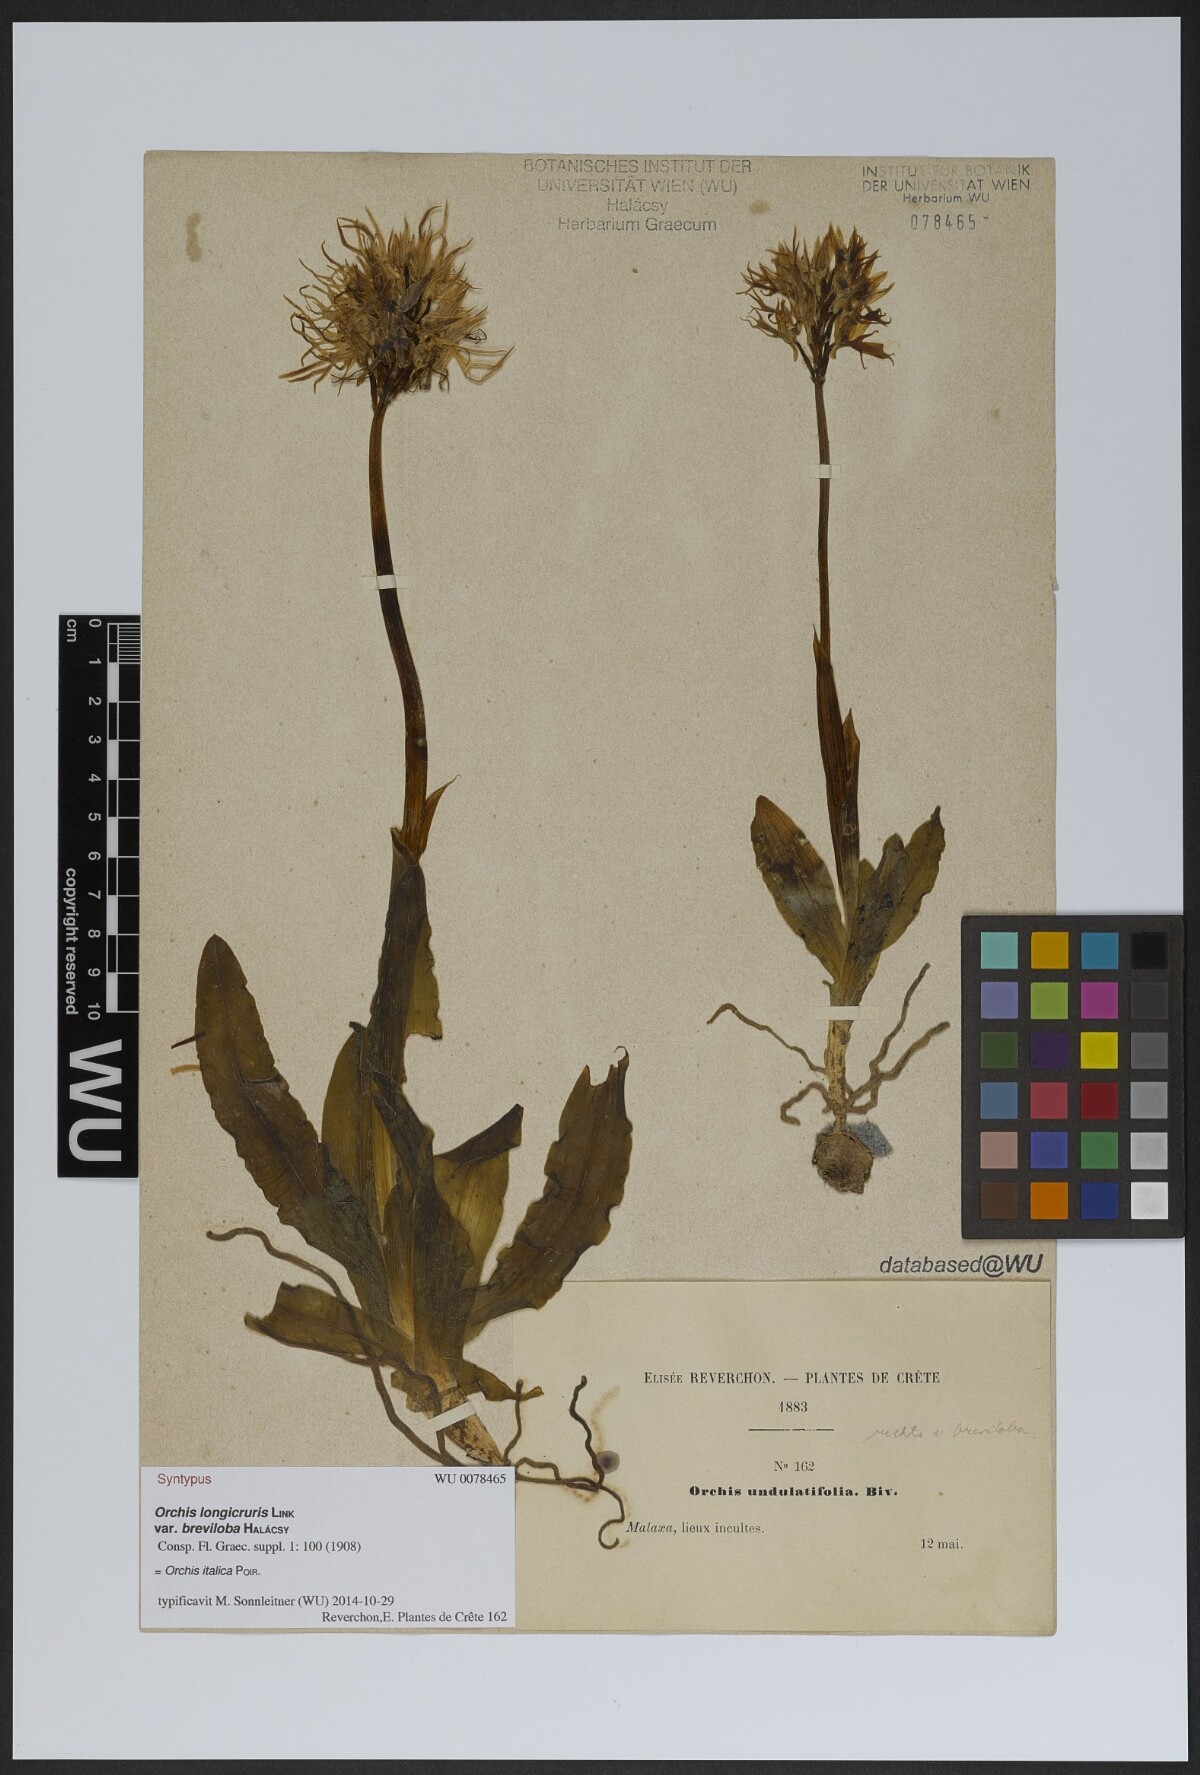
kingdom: Plantae
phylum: Tracheophyta
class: Liliopsida
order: Asparagales
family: Orchidaceae
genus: Orchis
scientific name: Orchis italica
